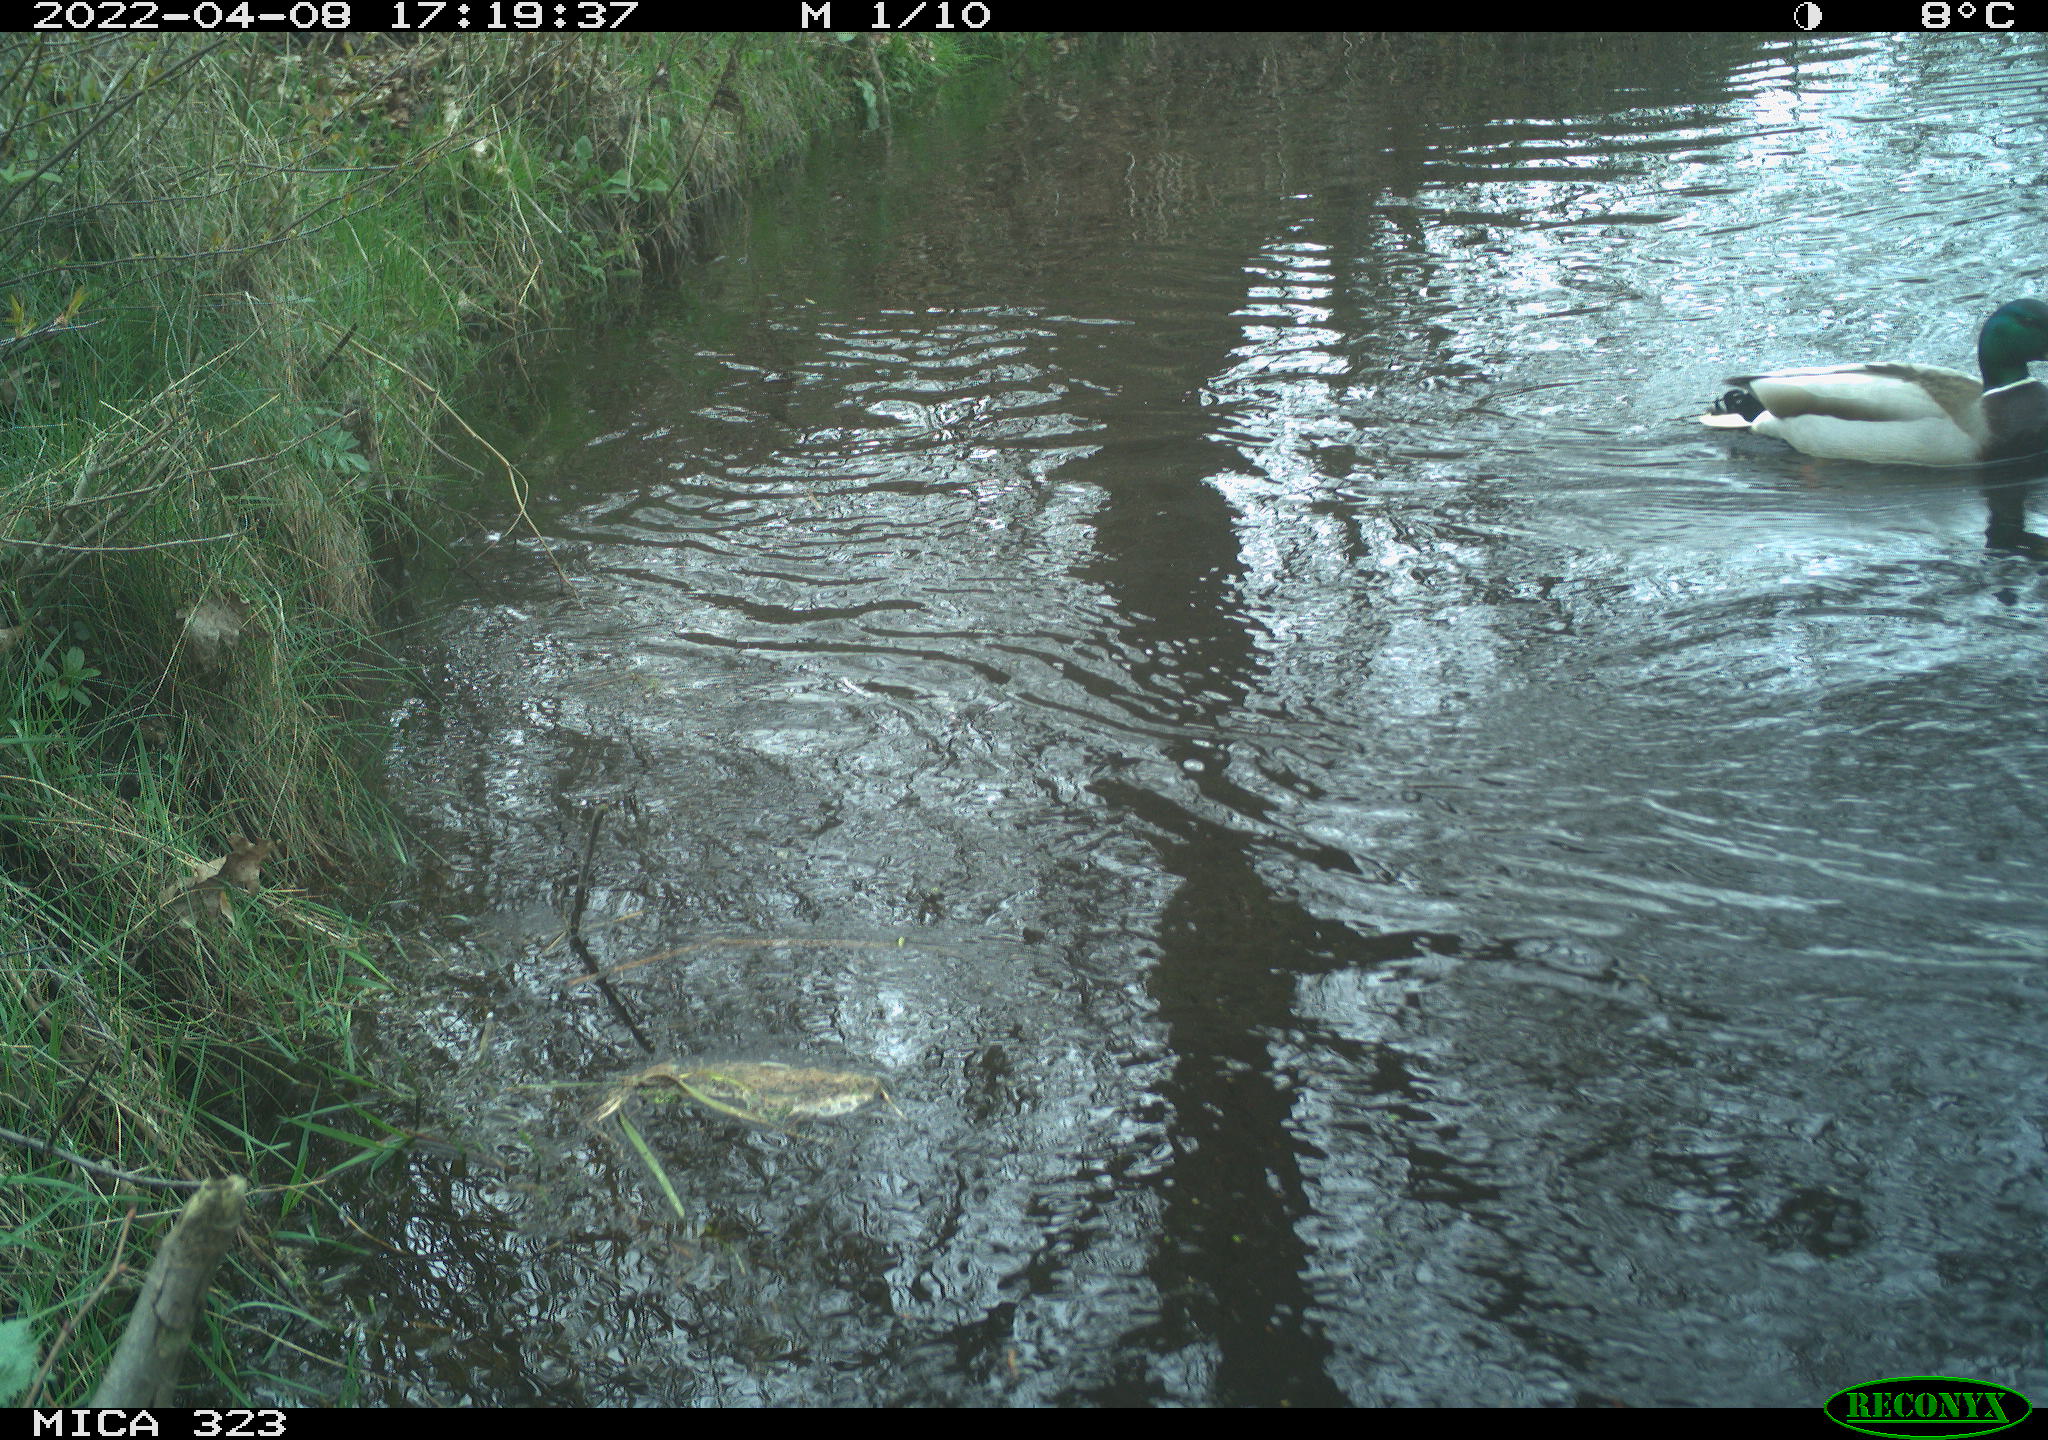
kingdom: Animalia
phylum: Chordata
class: Aves
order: Anseriformes
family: Anatidae
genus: Anas
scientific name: Anas platyrhynchos
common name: Mallard
